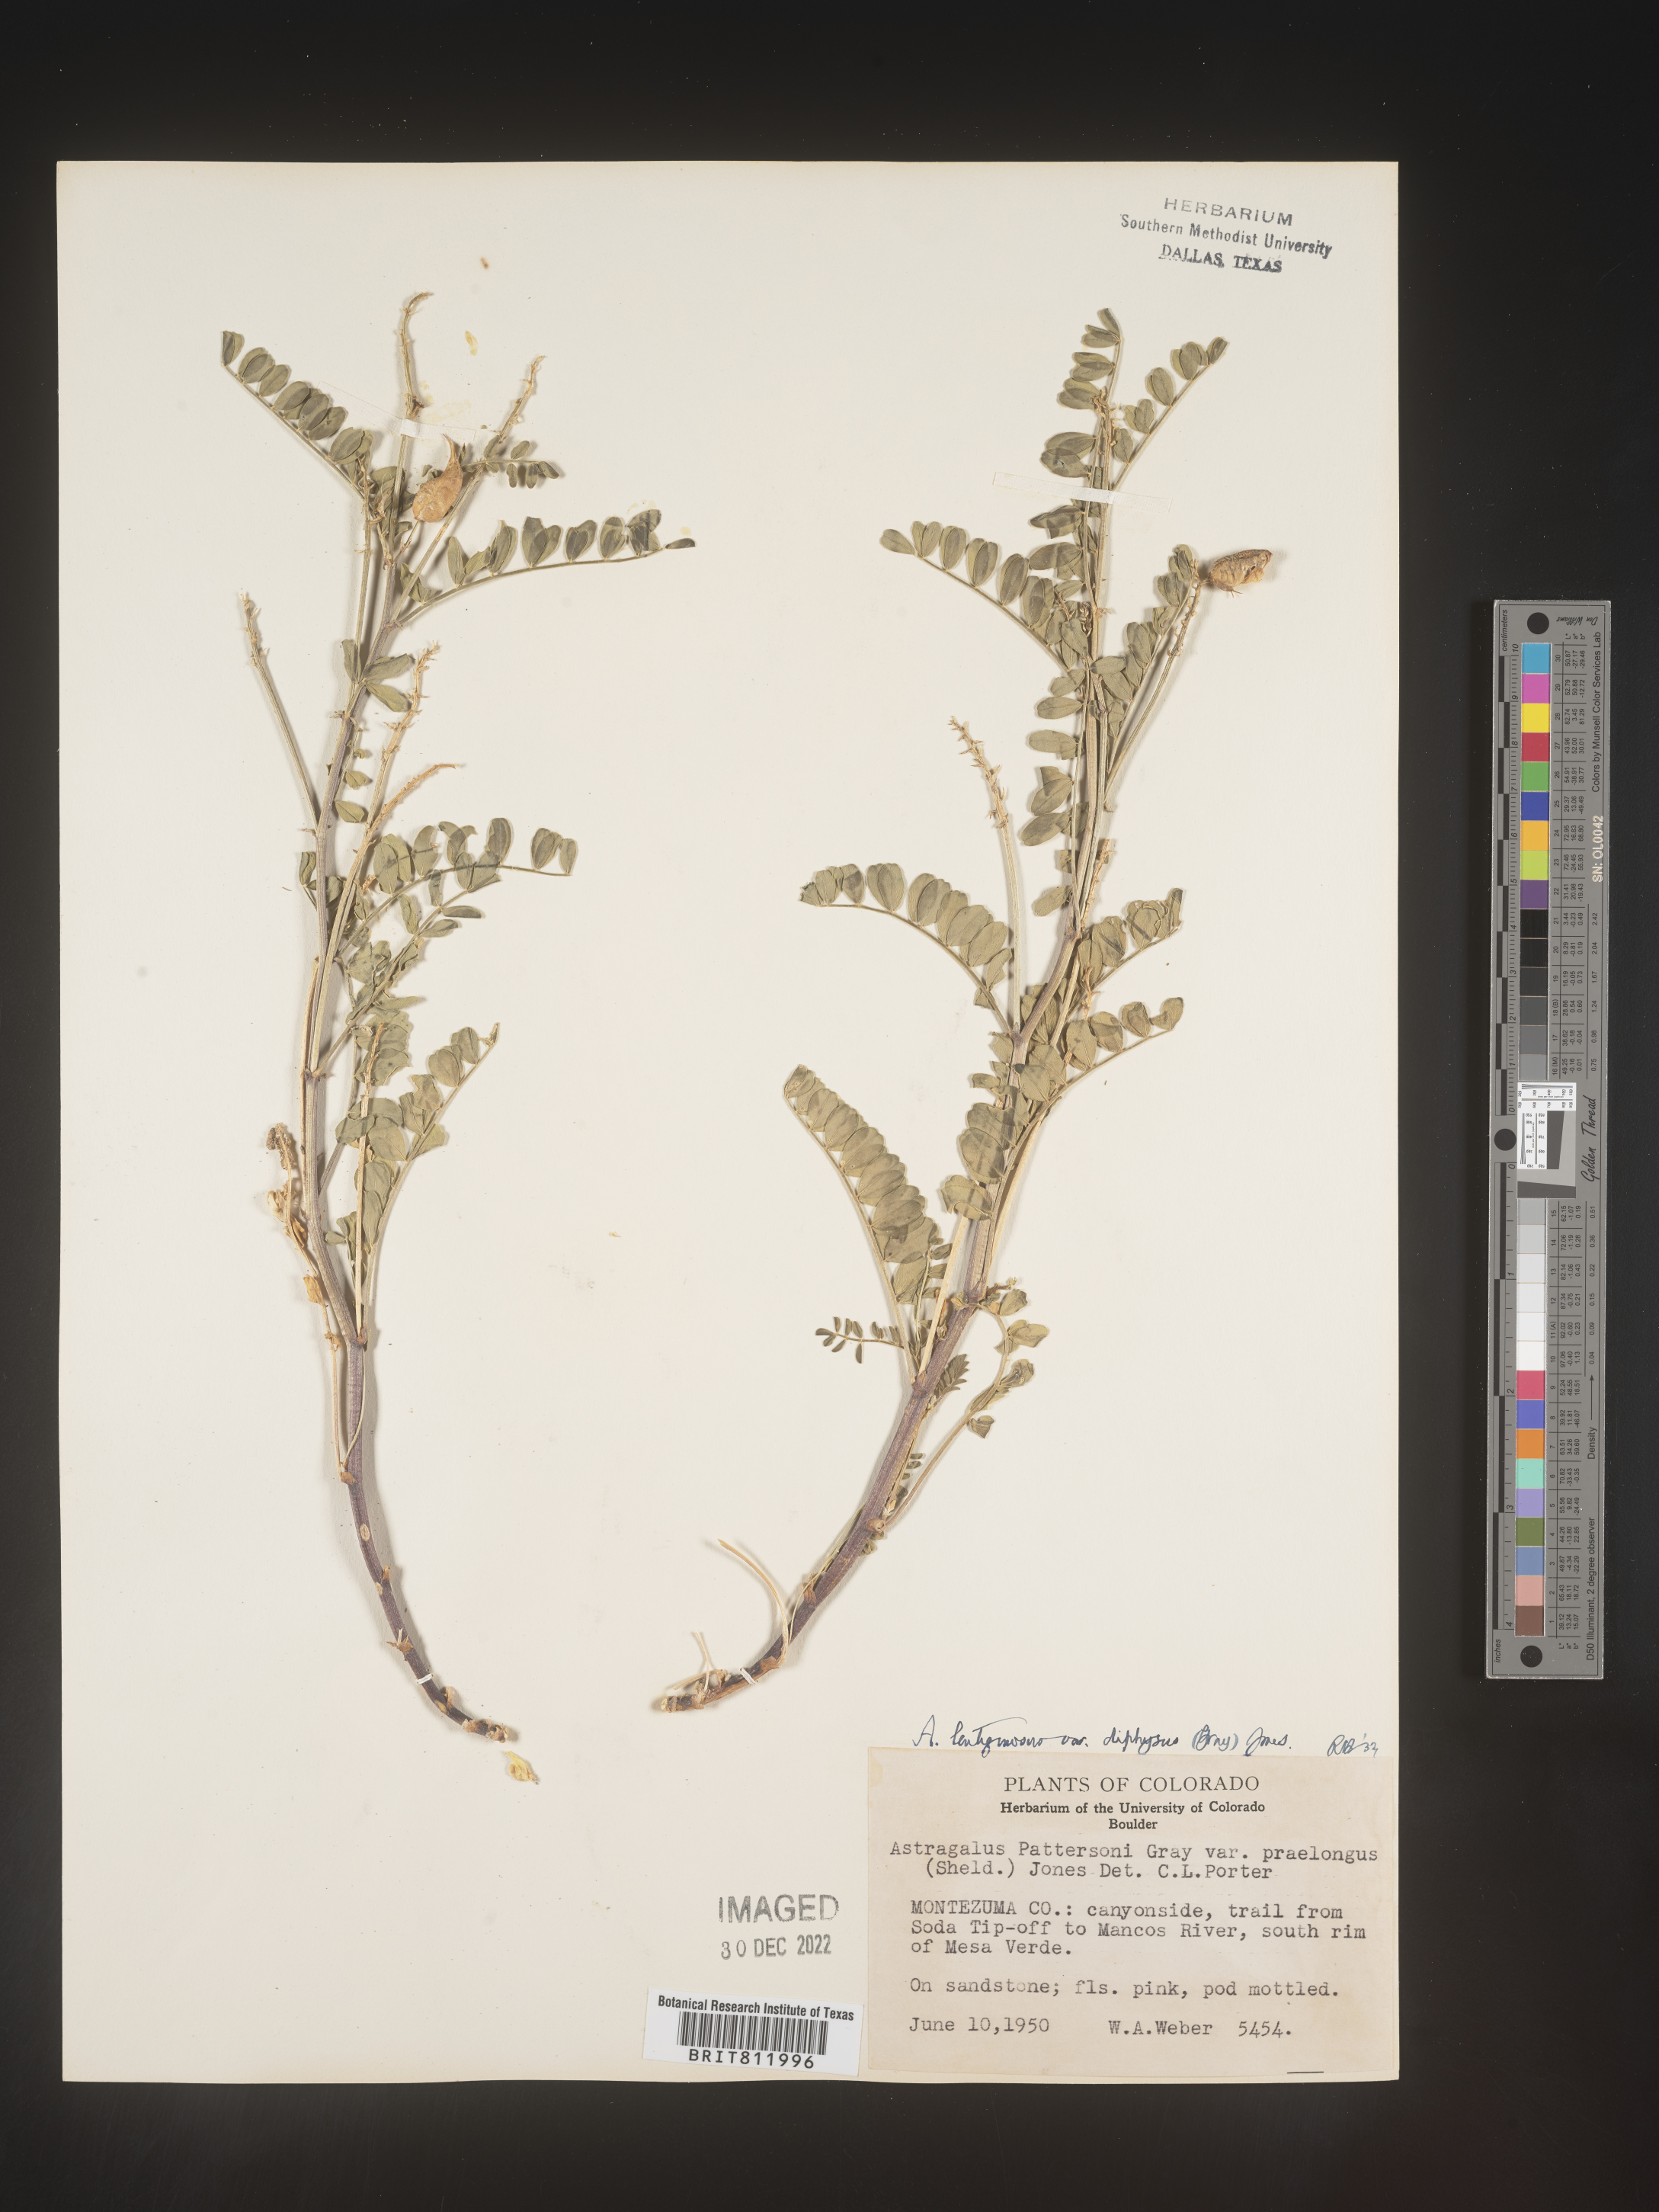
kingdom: Plantae
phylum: Tracheophyta
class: Magnoliopsida
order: Fabales
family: Fabaceae
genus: Astragalus
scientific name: Astragalus lentiginosus
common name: Freckled milkvetch
